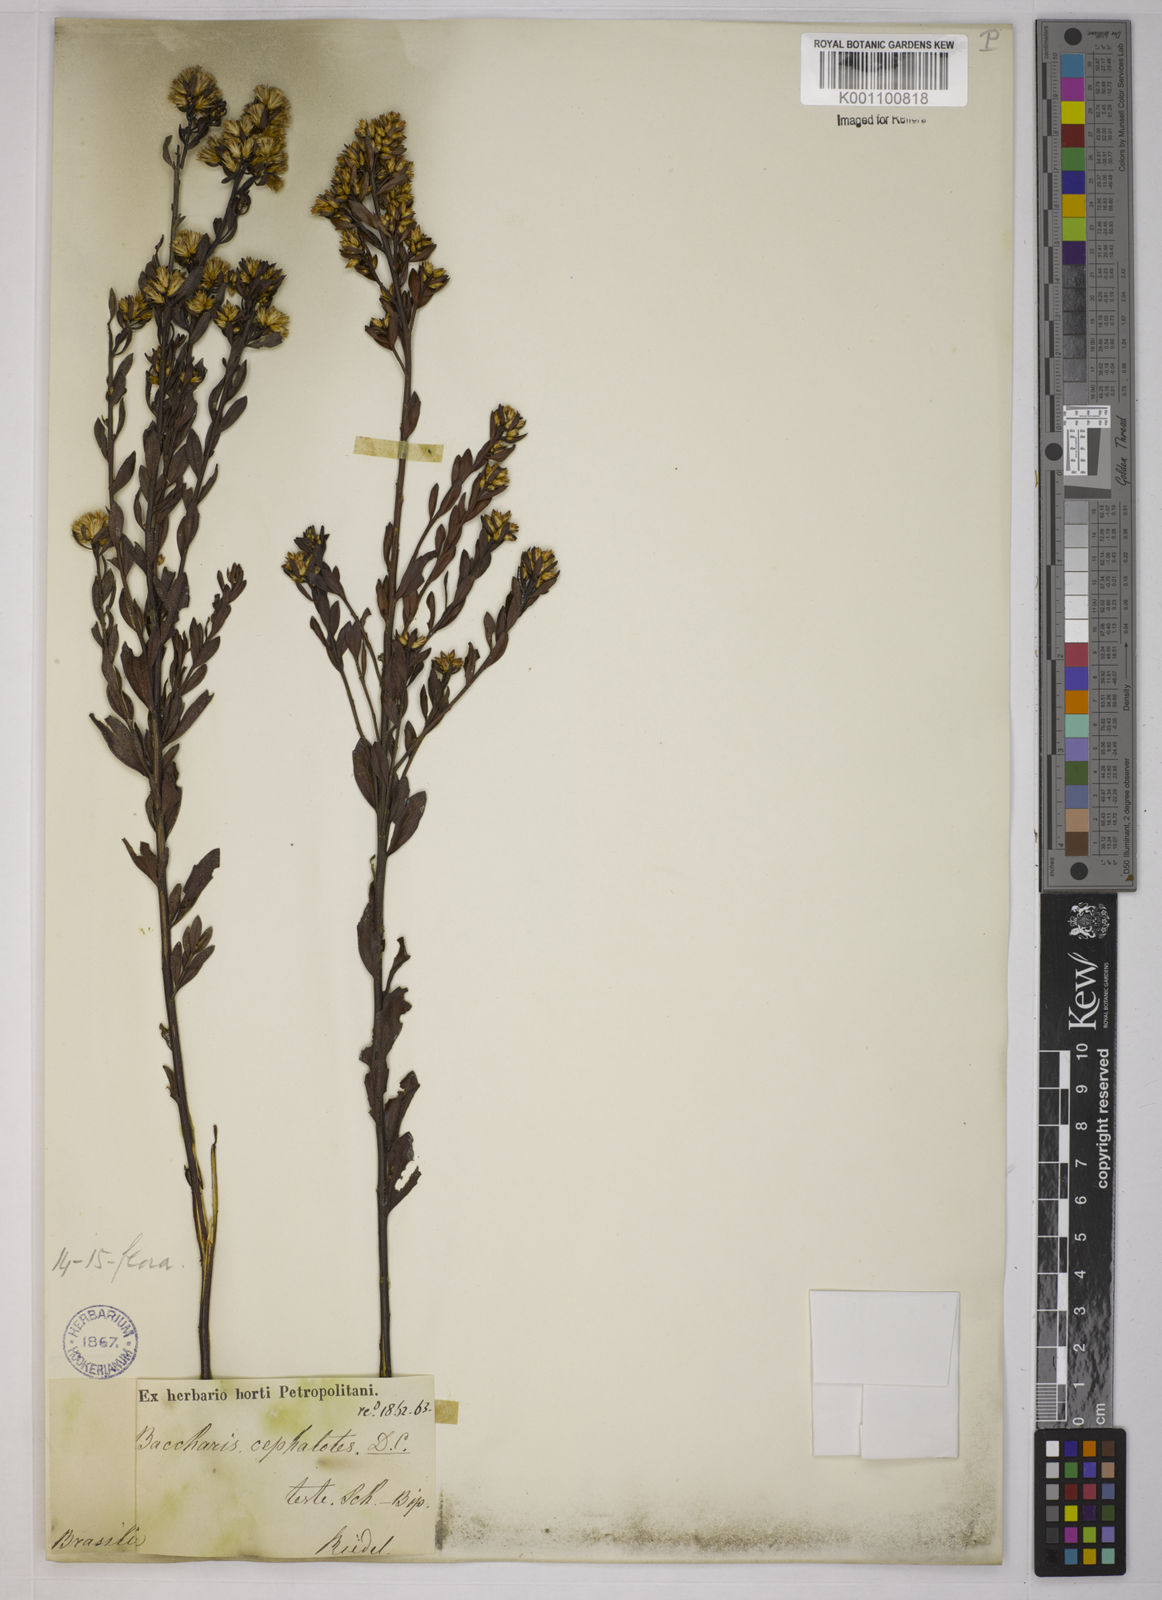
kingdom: Plantae
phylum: Tracheophyta
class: Magnoliopsida
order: Asterales
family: Asteraceae
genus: Baccharis
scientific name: Baccharis camporum
